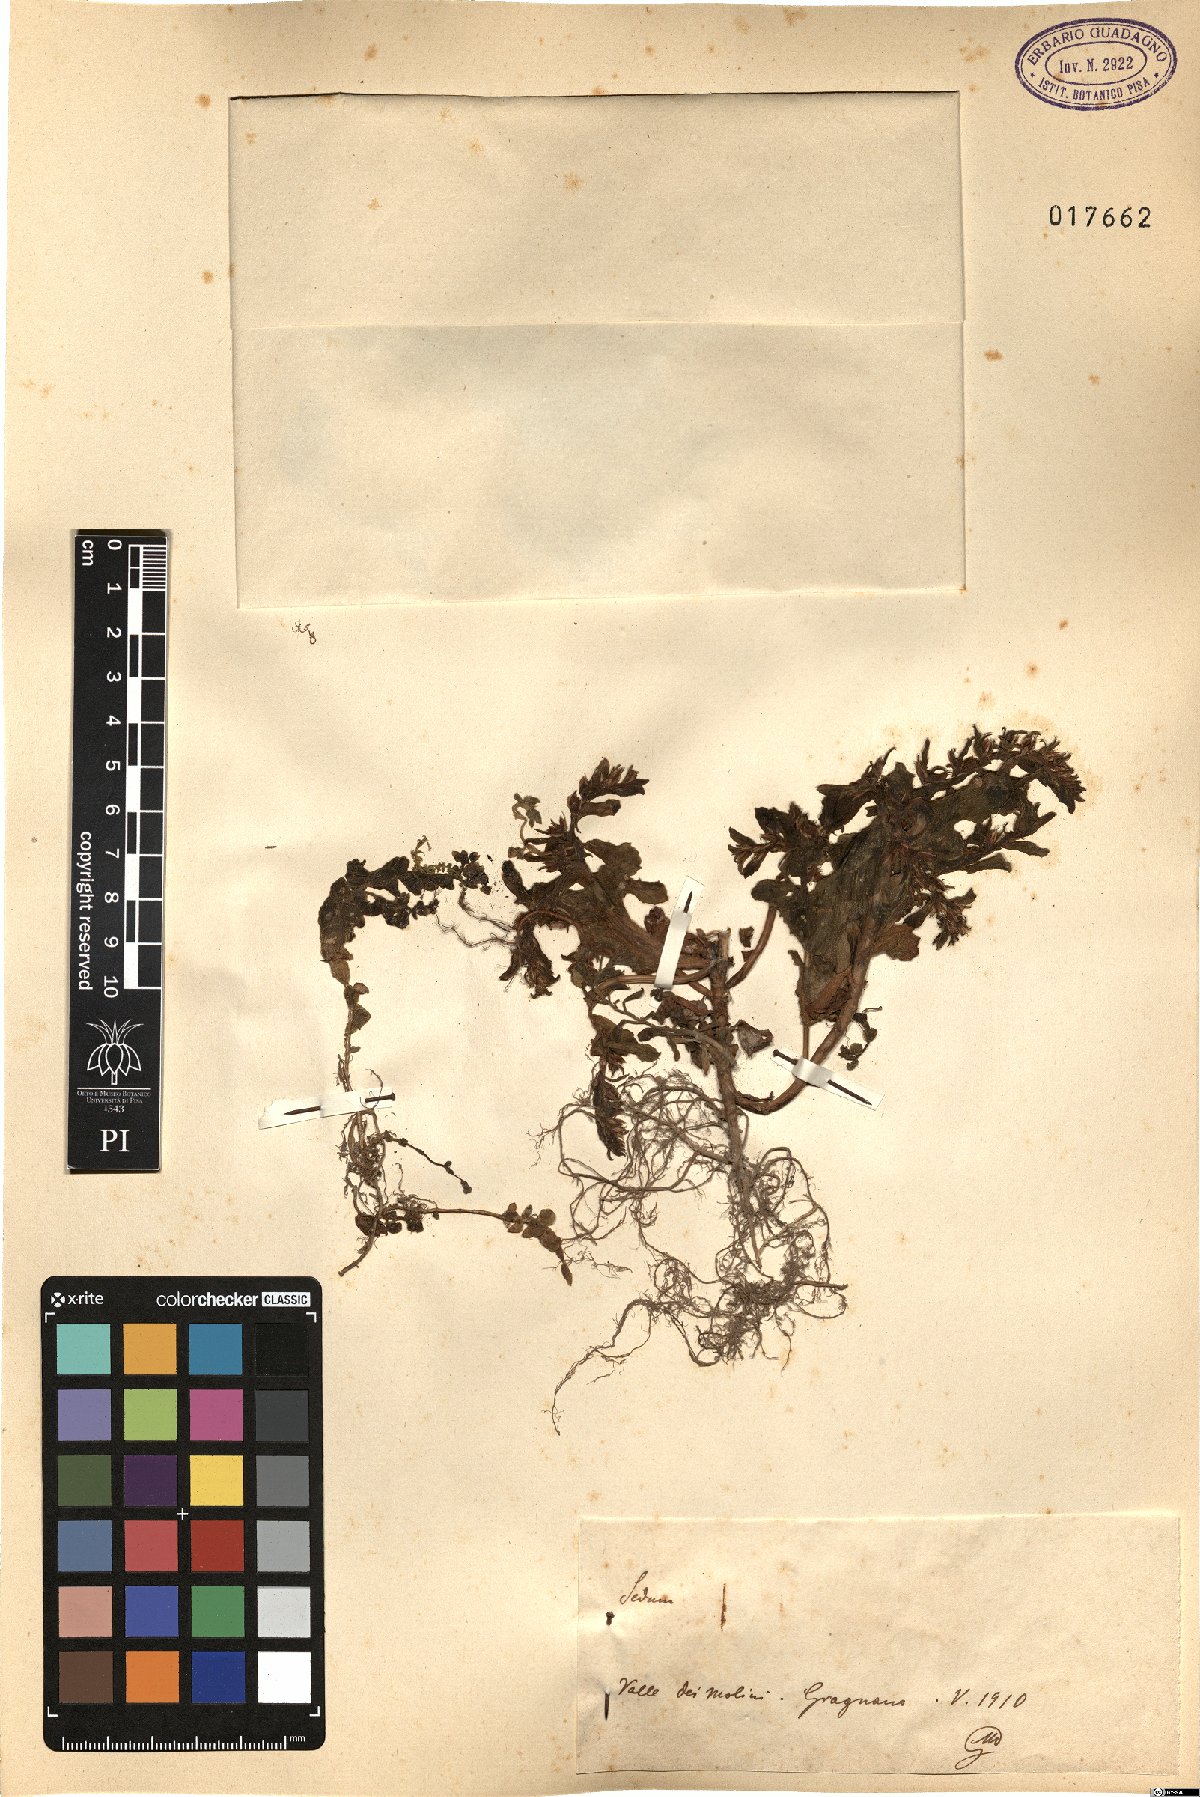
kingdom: Plantae
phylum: Tracheophyta
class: Magnoliopsida
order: Saxifragales
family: Crassulaceae
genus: Sedum
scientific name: Sedum
